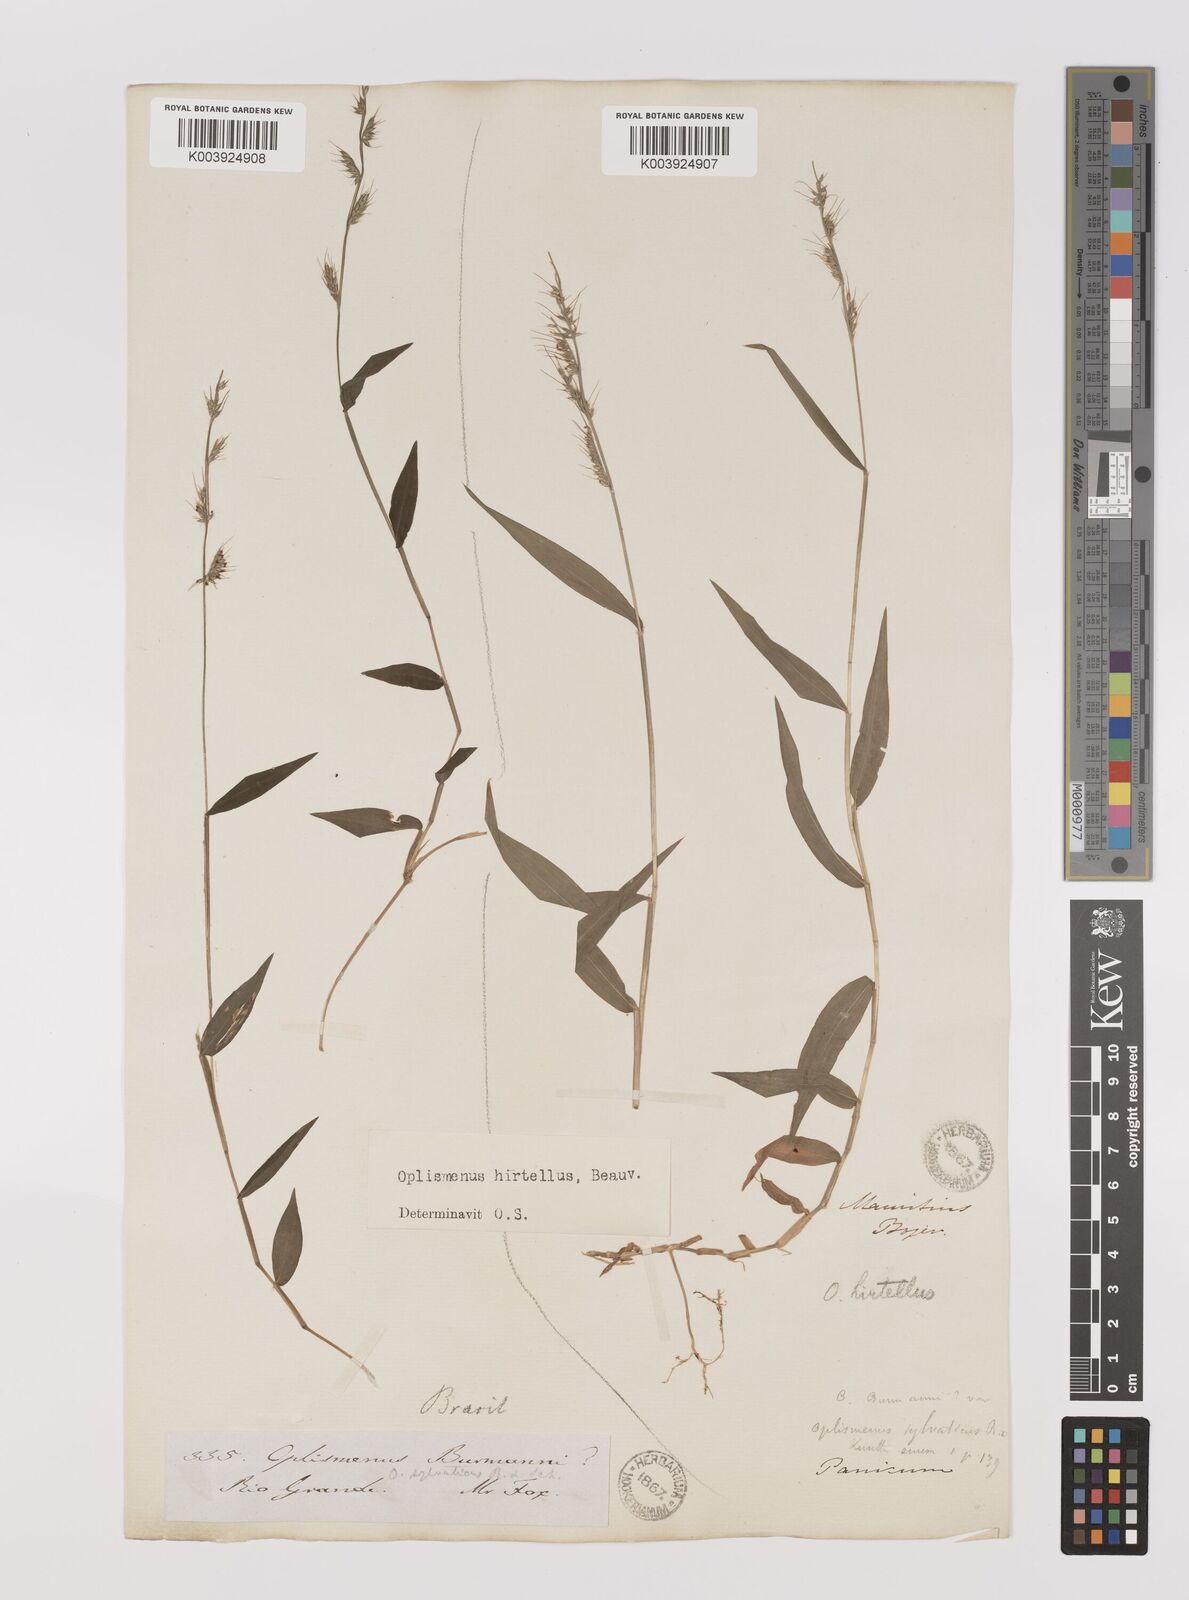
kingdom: Plantae
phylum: Tracheophyta
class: Liliopsida
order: Poales
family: Poaceae
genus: Oplismenus
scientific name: Oplismenus hirtellus
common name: Basketgrass
